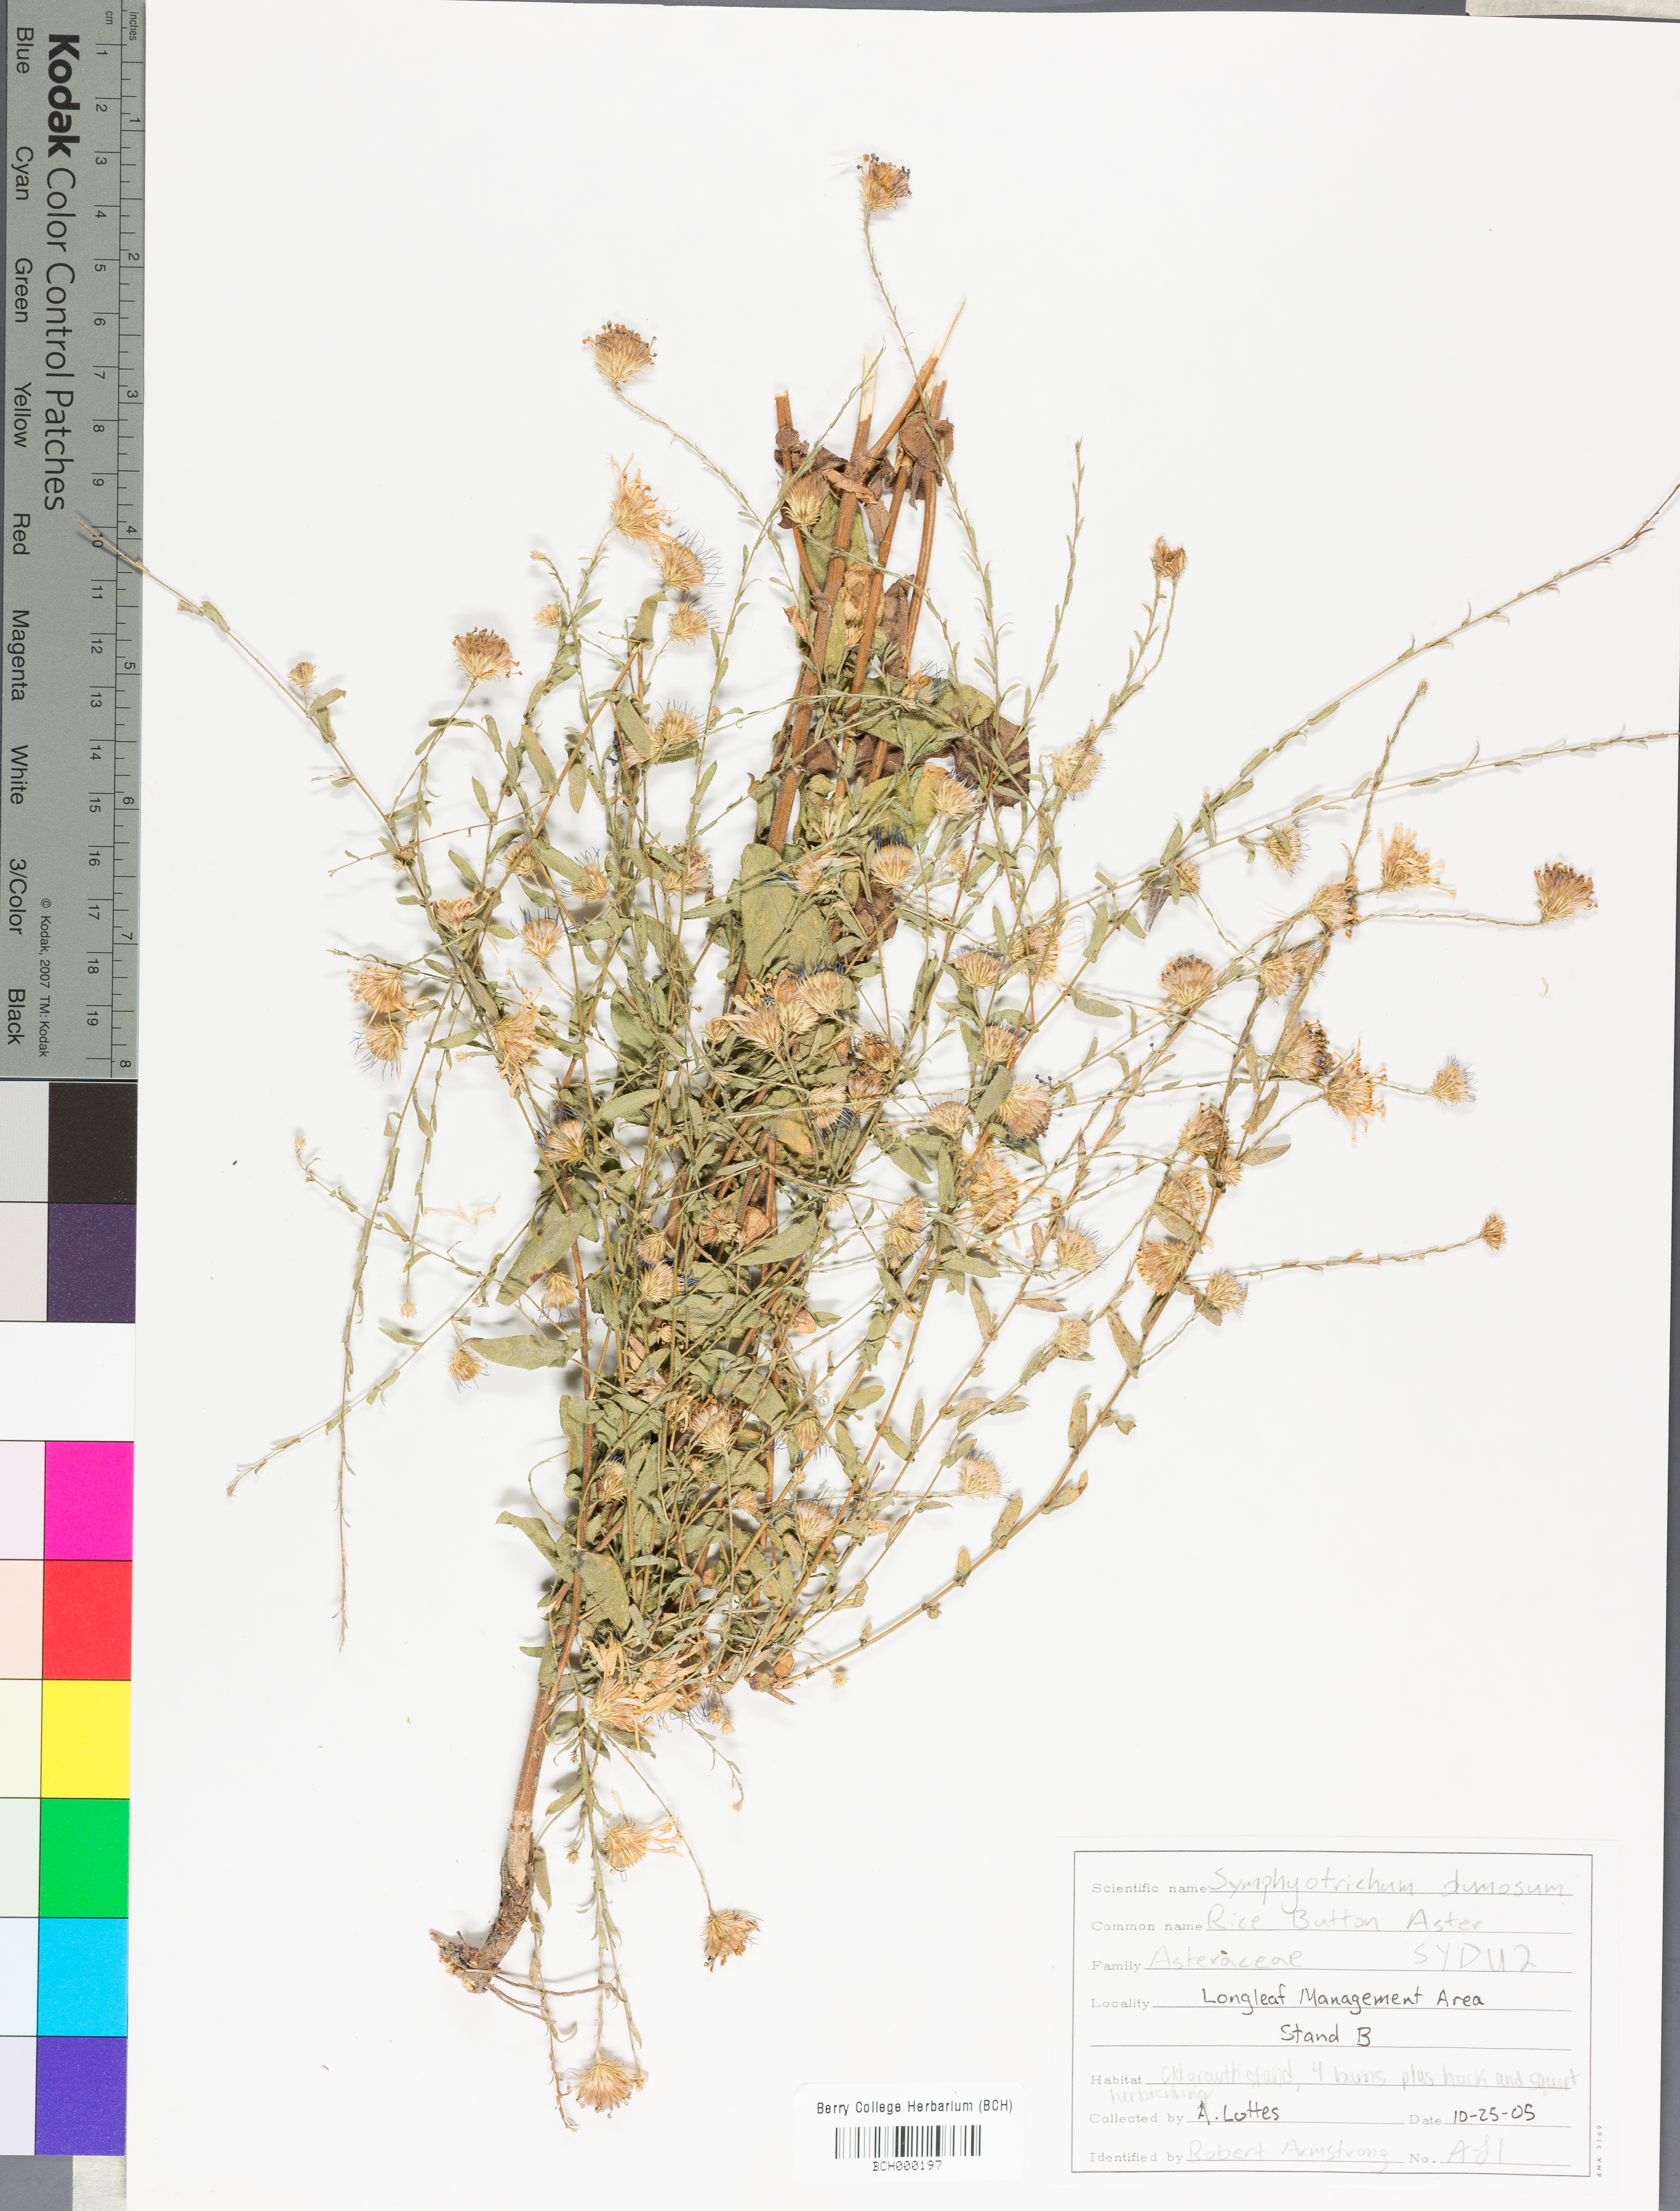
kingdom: Plantae
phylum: Tracheophyta
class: Magnoliopsida
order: Asterales
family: Asteraceae
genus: Symphyotrichum
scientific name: Symphyotrichum dumosum
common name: Bushy aster
